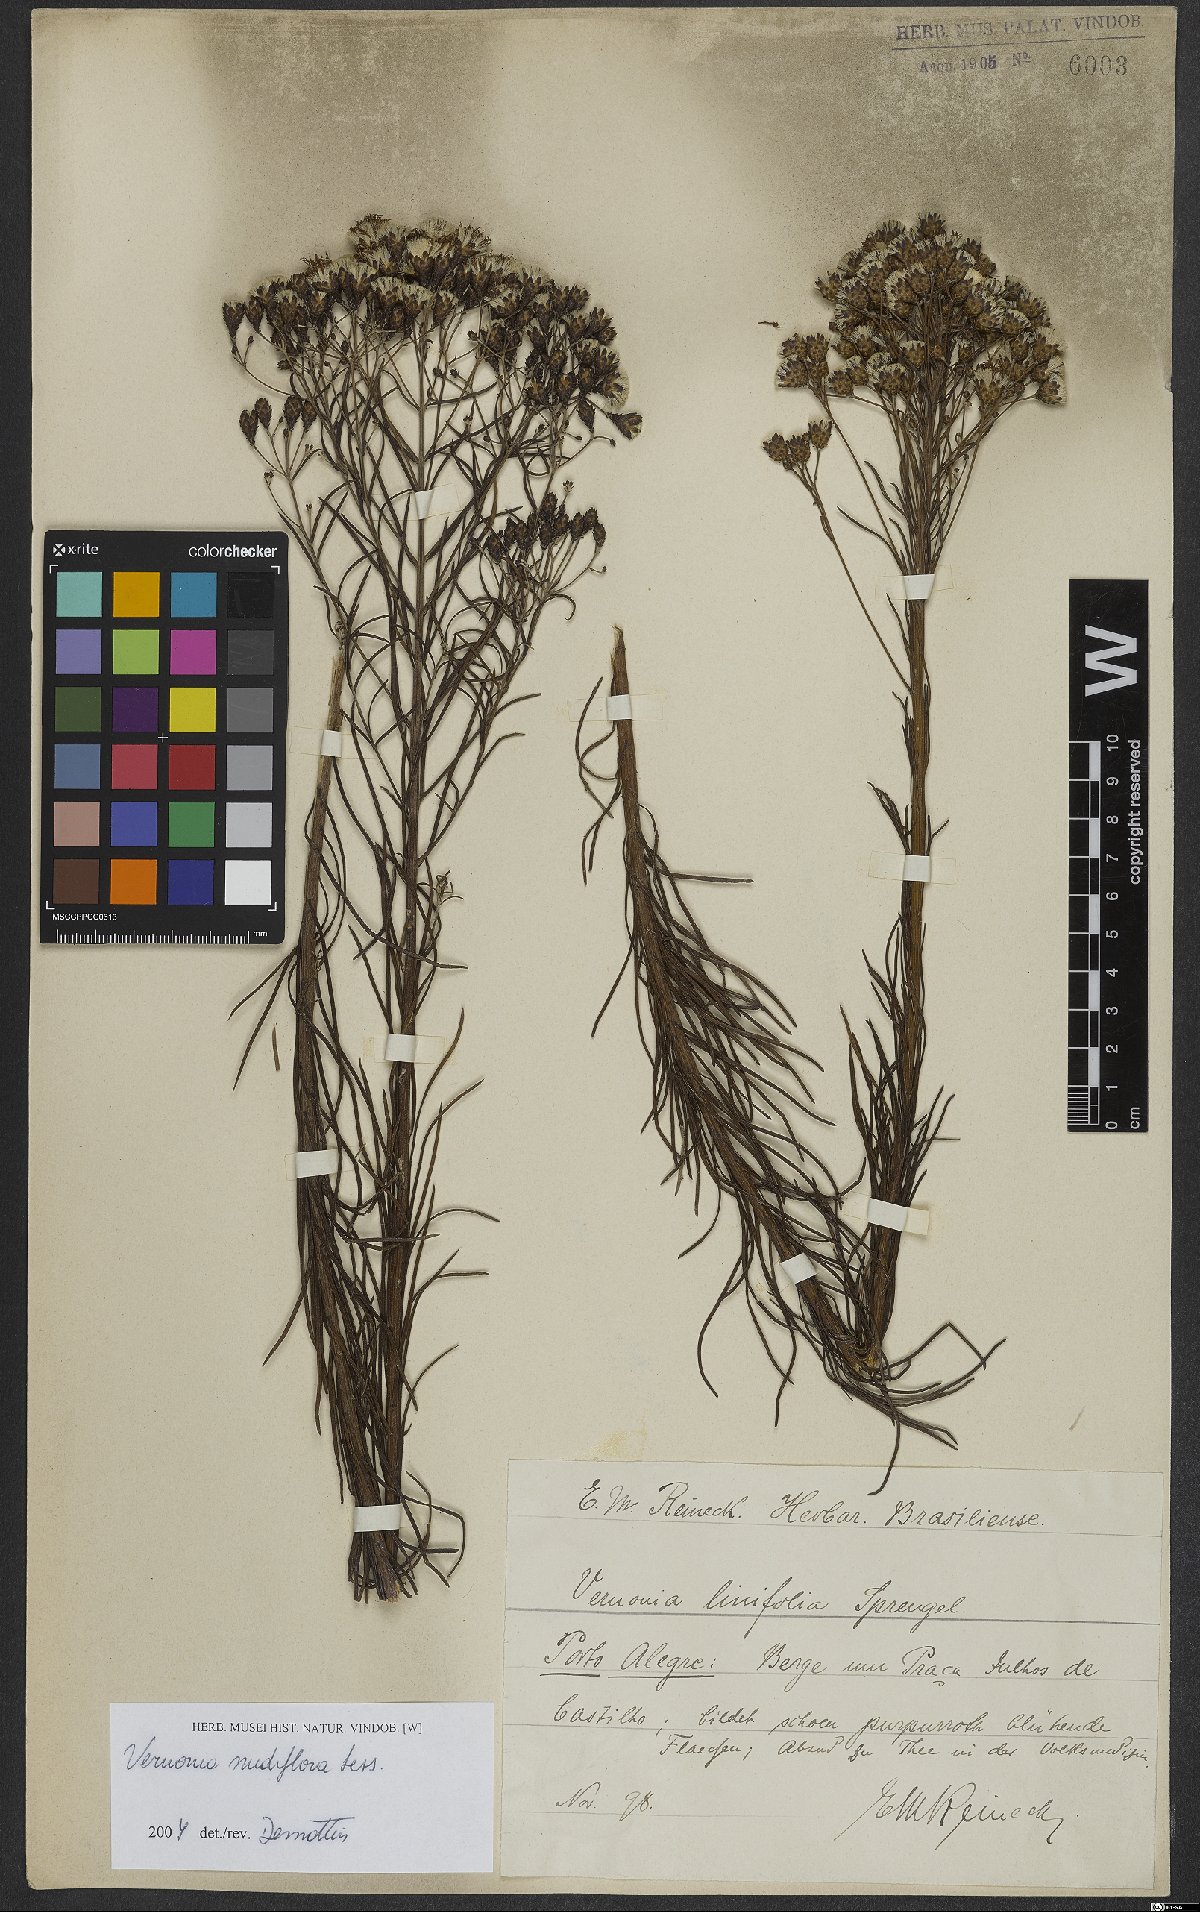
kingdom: Plantae
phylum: Tracheophyta
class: Magnoliopsida
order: Asterales
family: Asteraceae
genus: Vernonanthura
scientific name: Vernonanthura nudiflora
